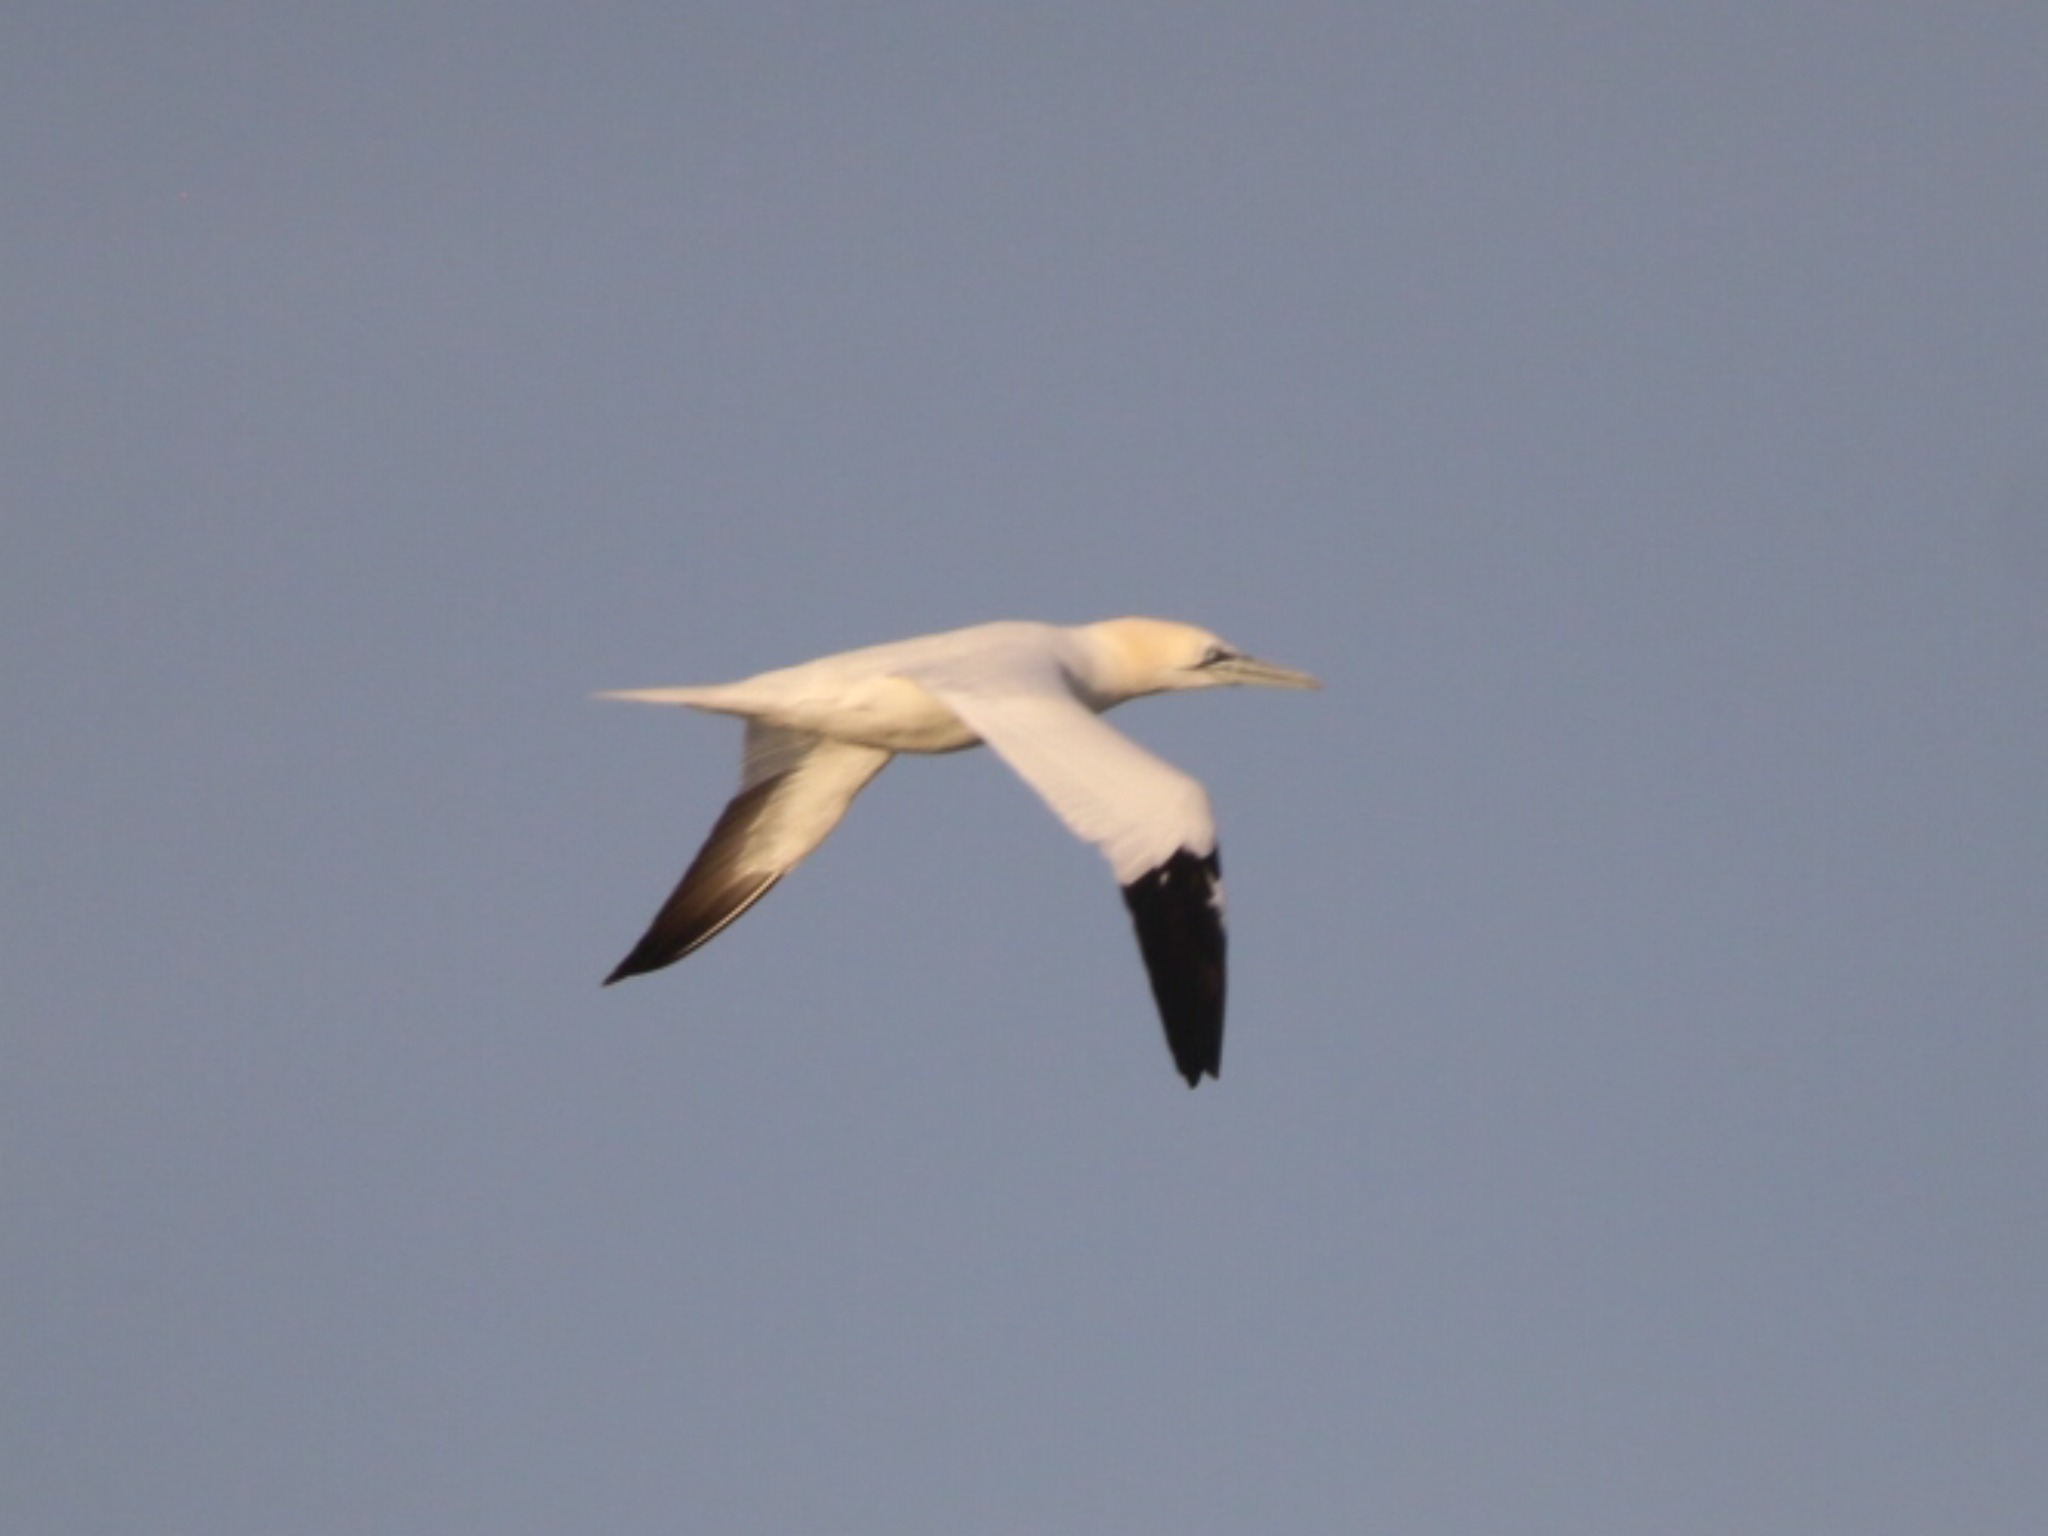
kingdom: Animalia
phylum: Chordata
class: Aves
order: Suliformes
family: Sulidae
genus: Morus
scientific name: Morus bassanus
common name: Sule
